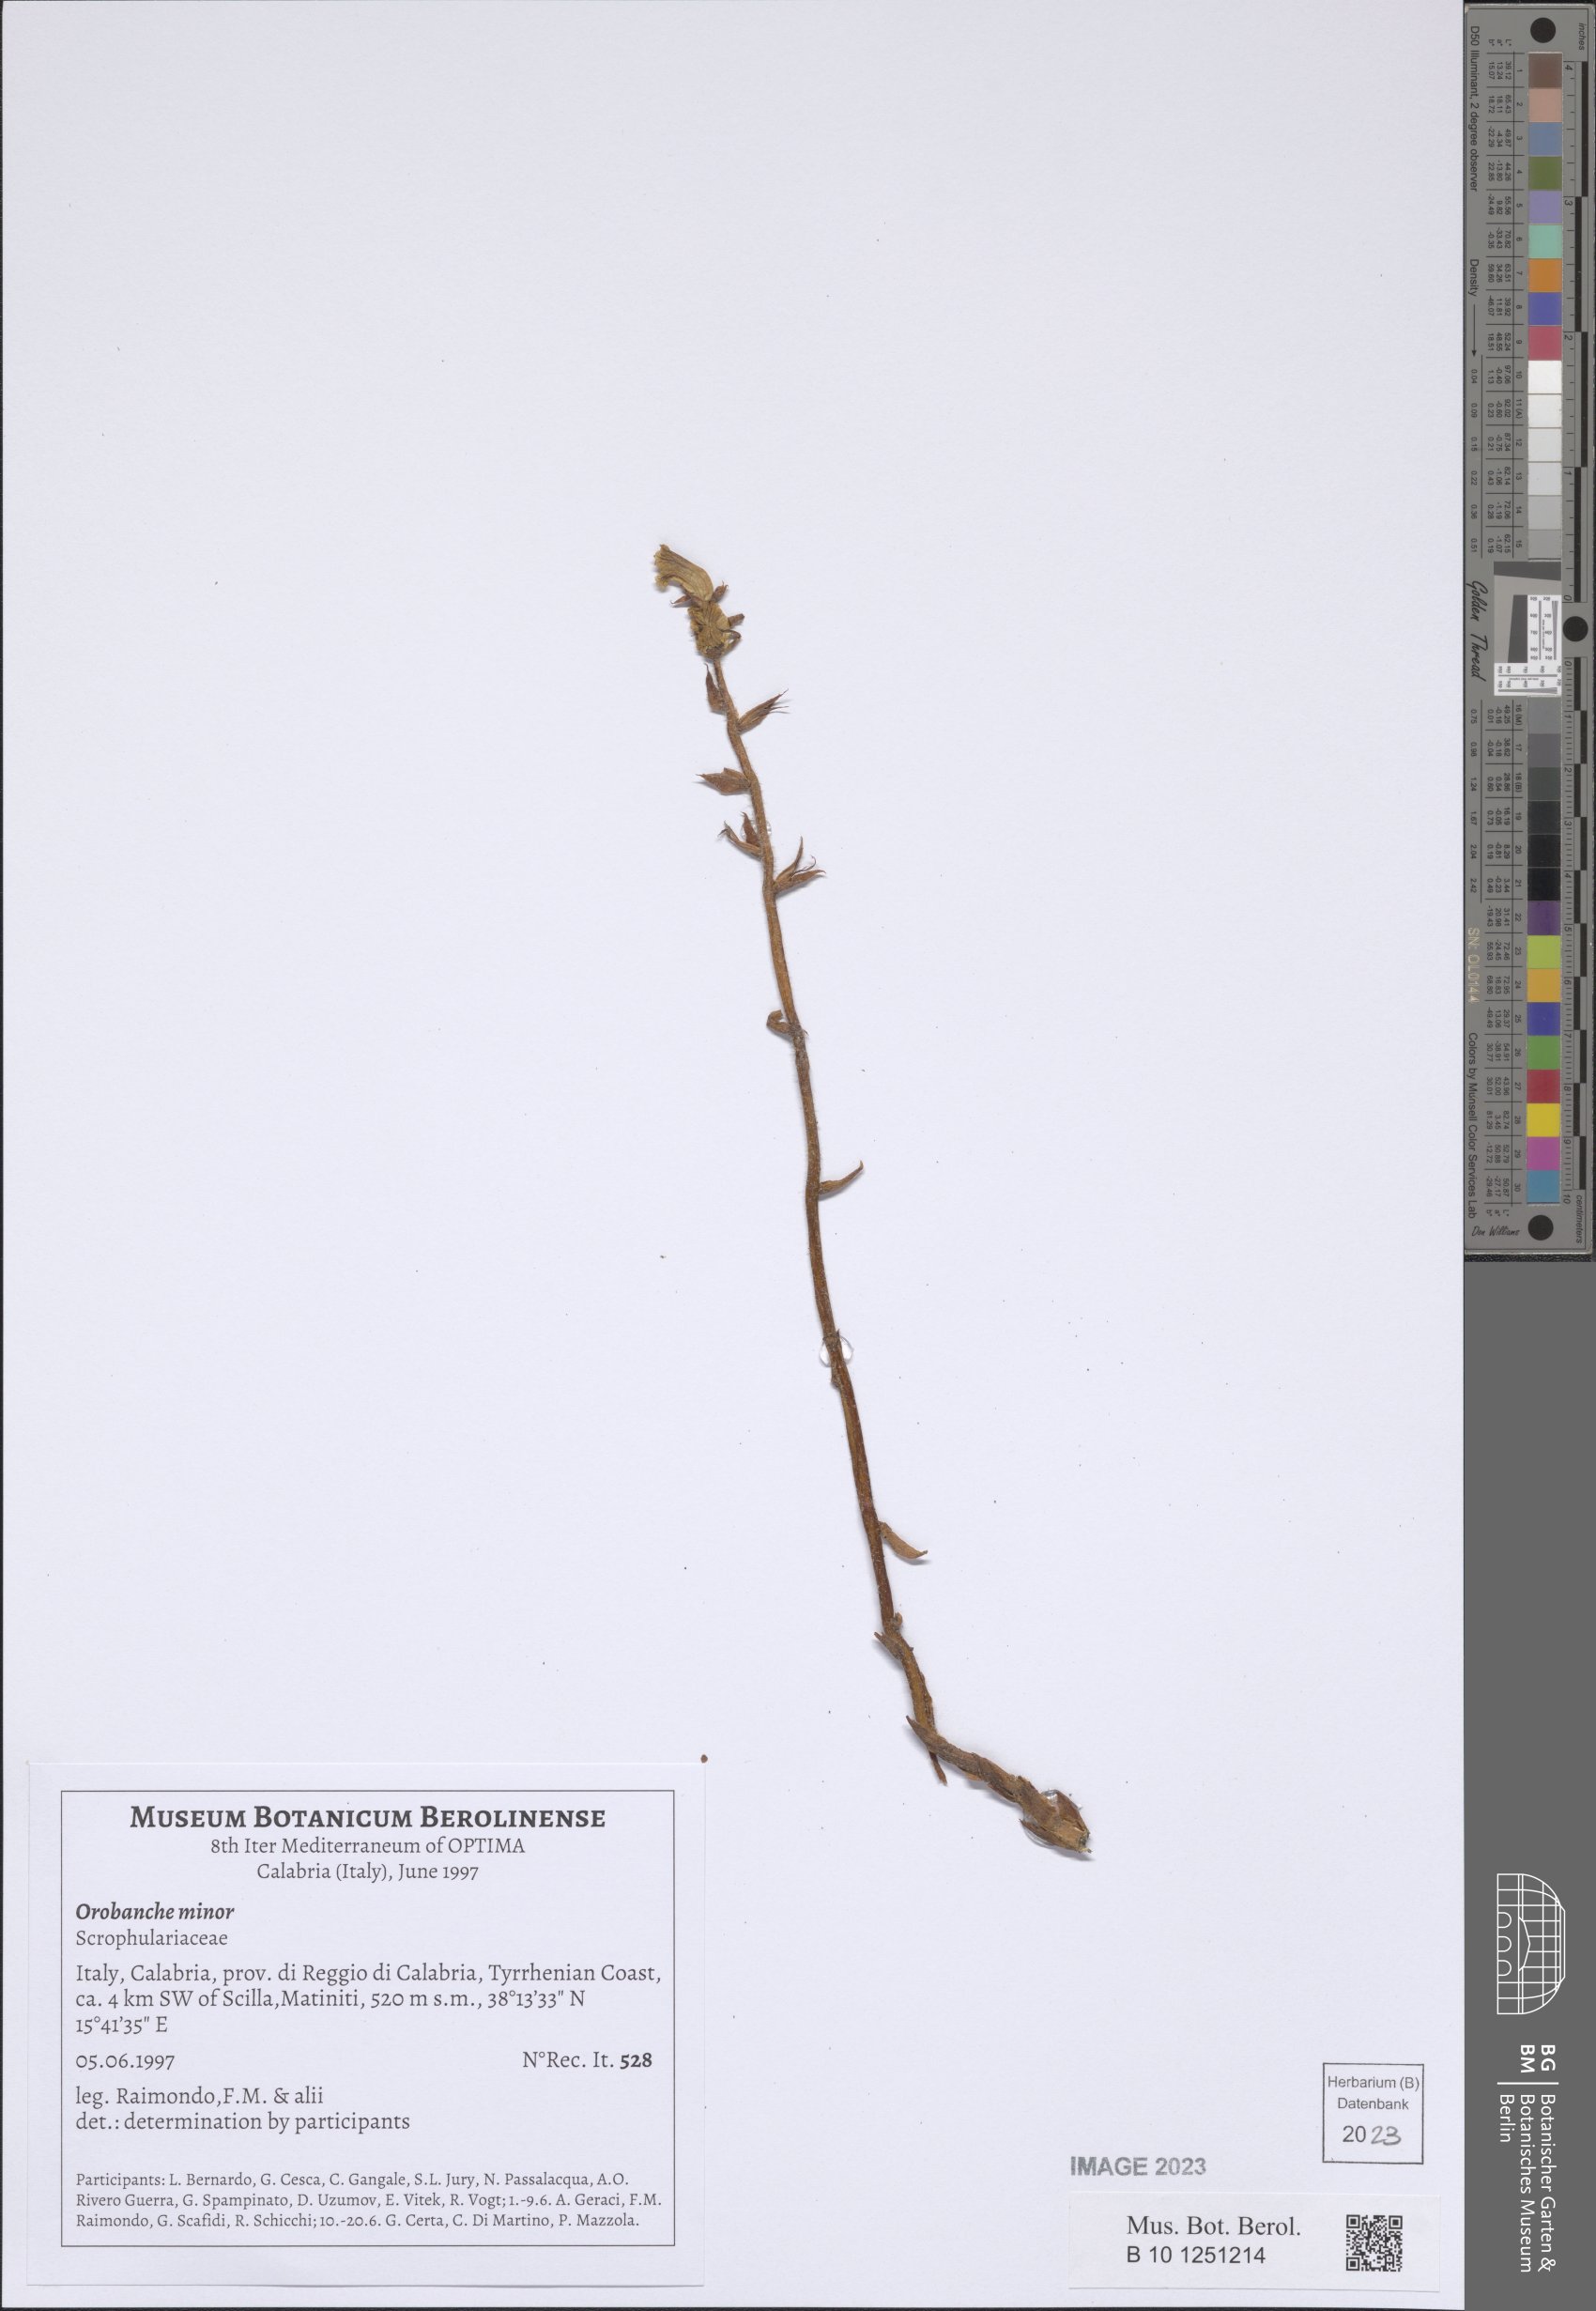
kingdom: Plantae
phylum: Tracheophyta
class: Magnoliopsida
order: Lamiales
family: Orobanchaceae
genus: Orobanche
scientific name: Orobanche minor
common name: Common broomrape
